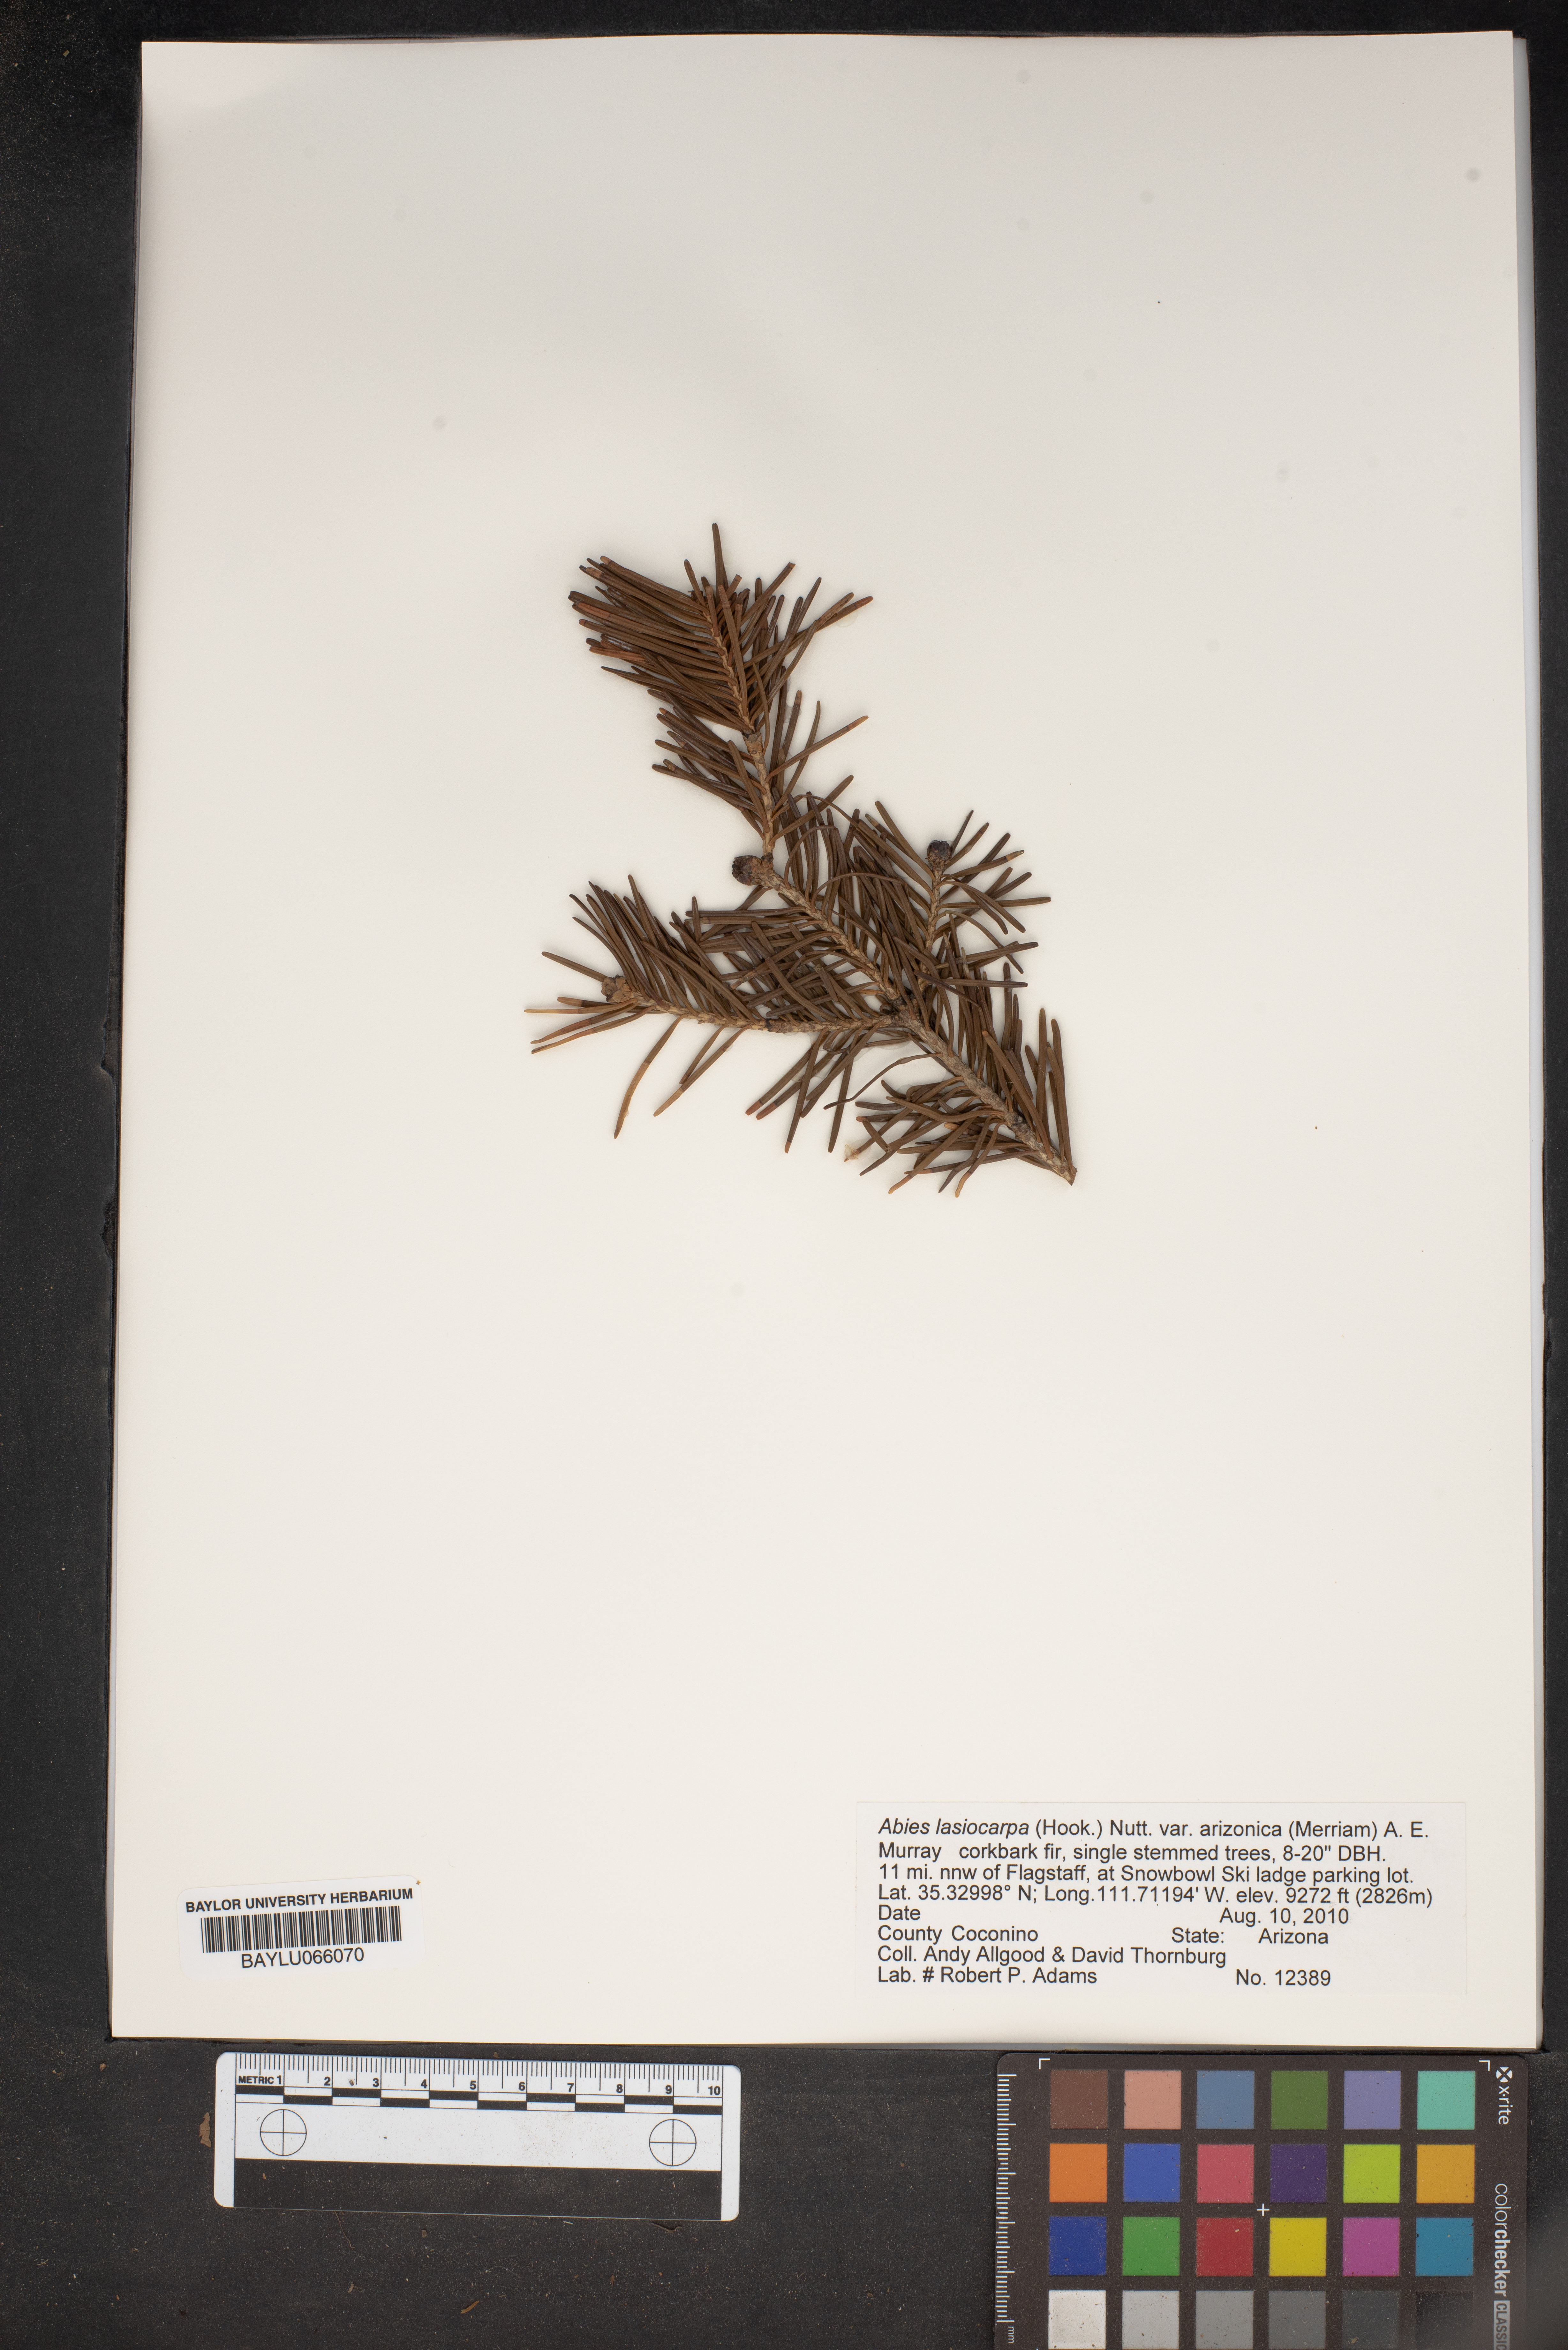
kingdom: Plantae
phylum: Tracheophyta
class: Pinopsida
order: Pinales
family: Pinaceae
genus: Abies
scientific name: Abies lasiocarpa
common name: Subalpine fir
